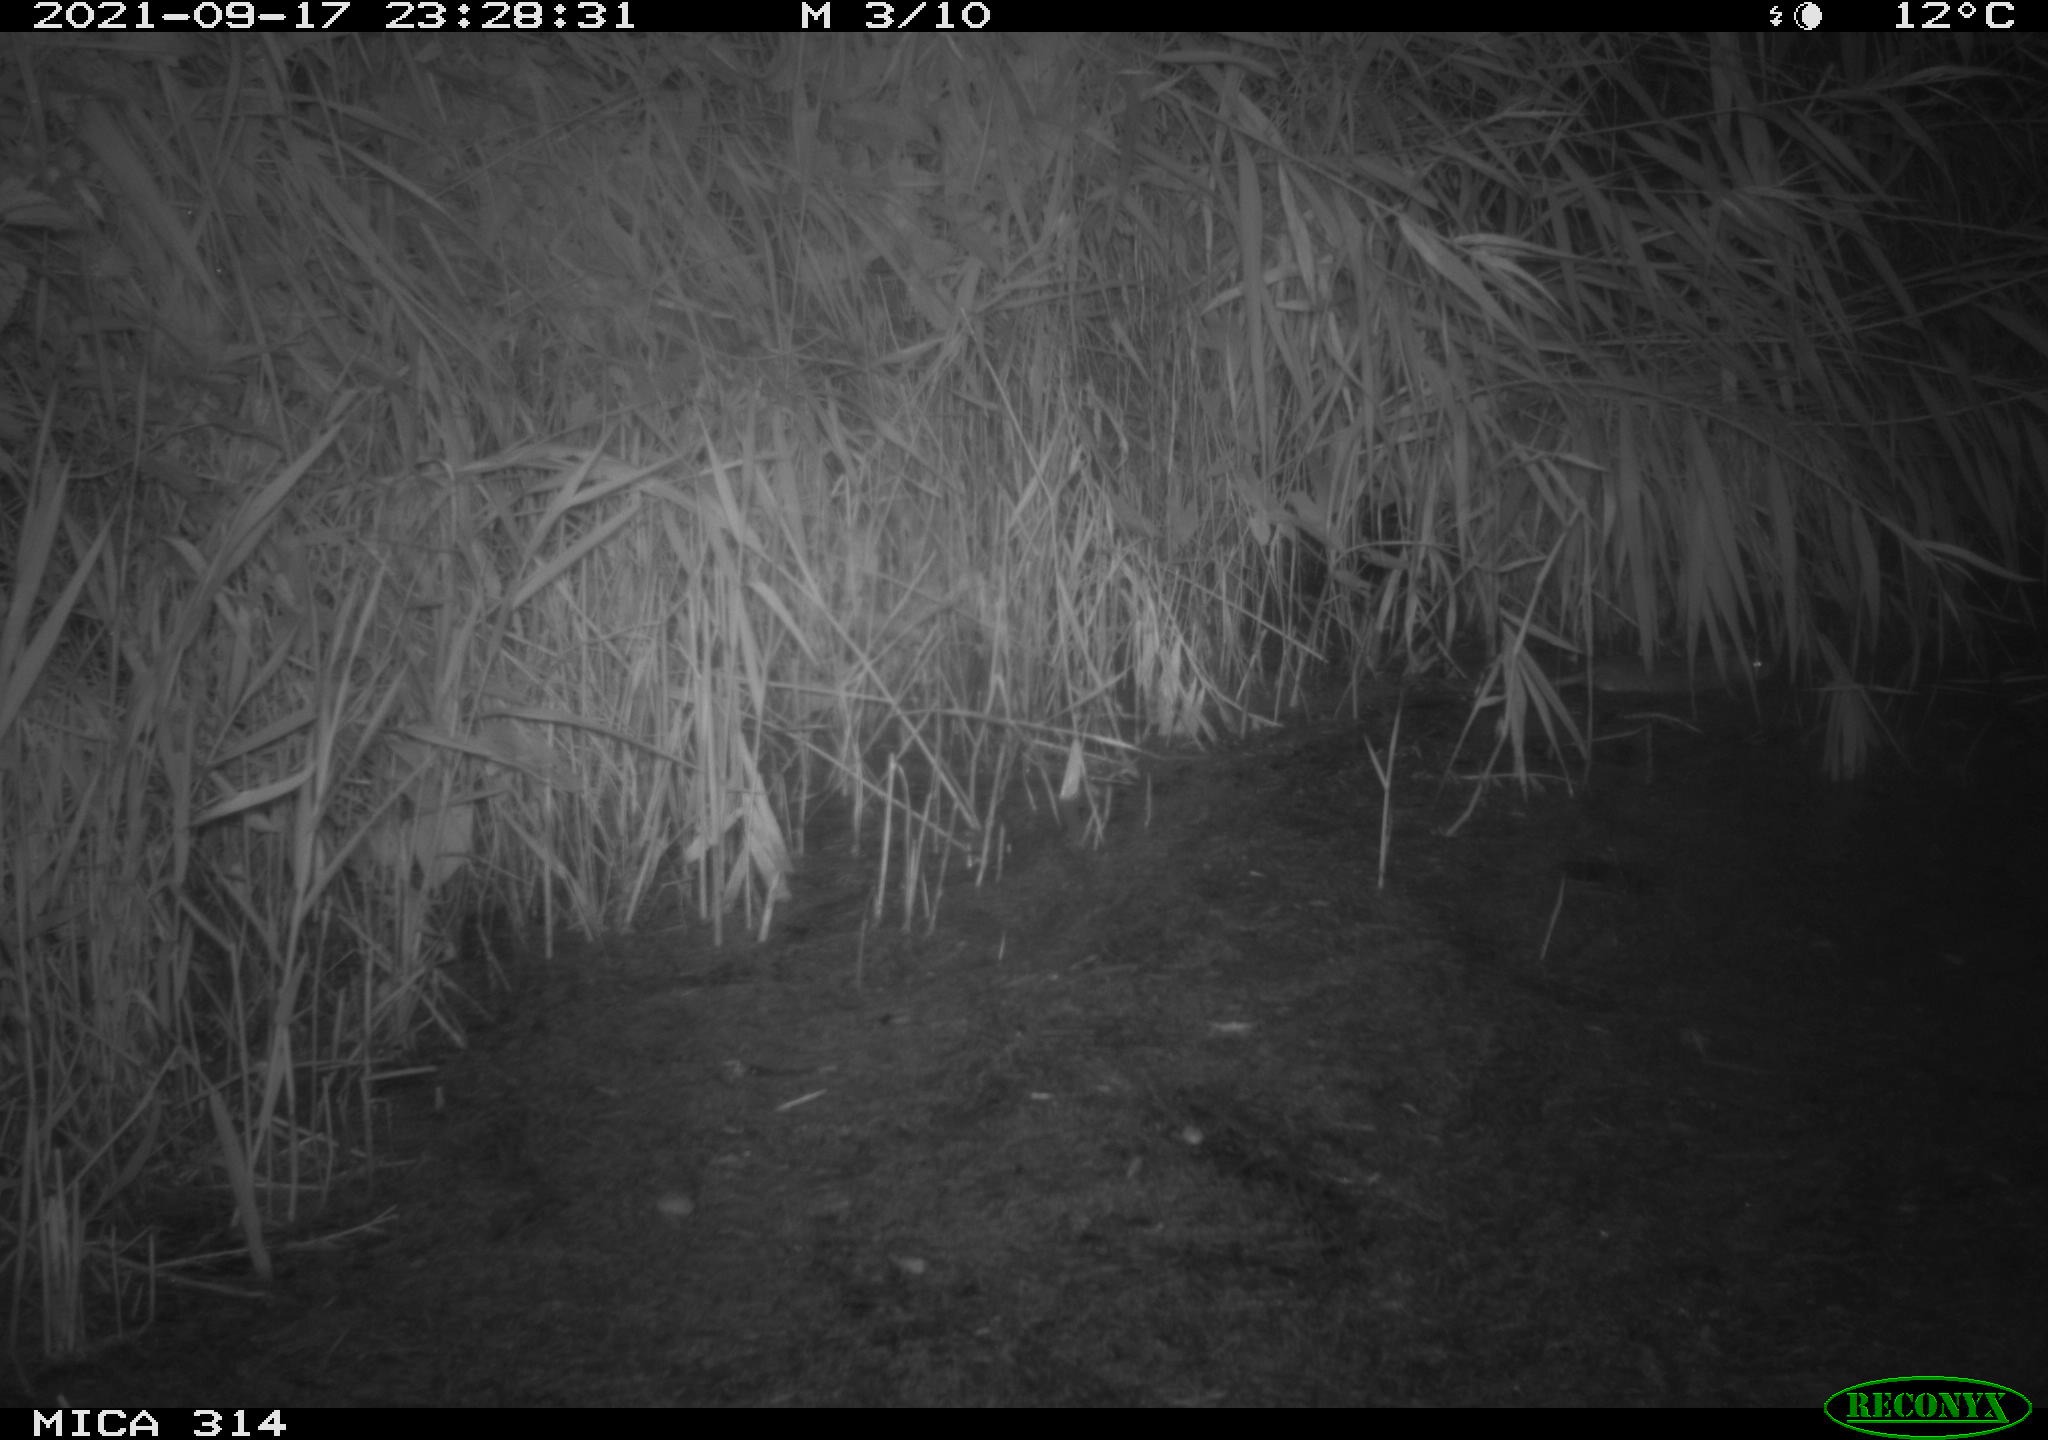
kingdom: Animalia
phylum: Chordata
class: Mammalia
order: Rodentia
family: Muridae
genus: Rattus
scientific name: Rattus norvegicus
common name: Brown rat
